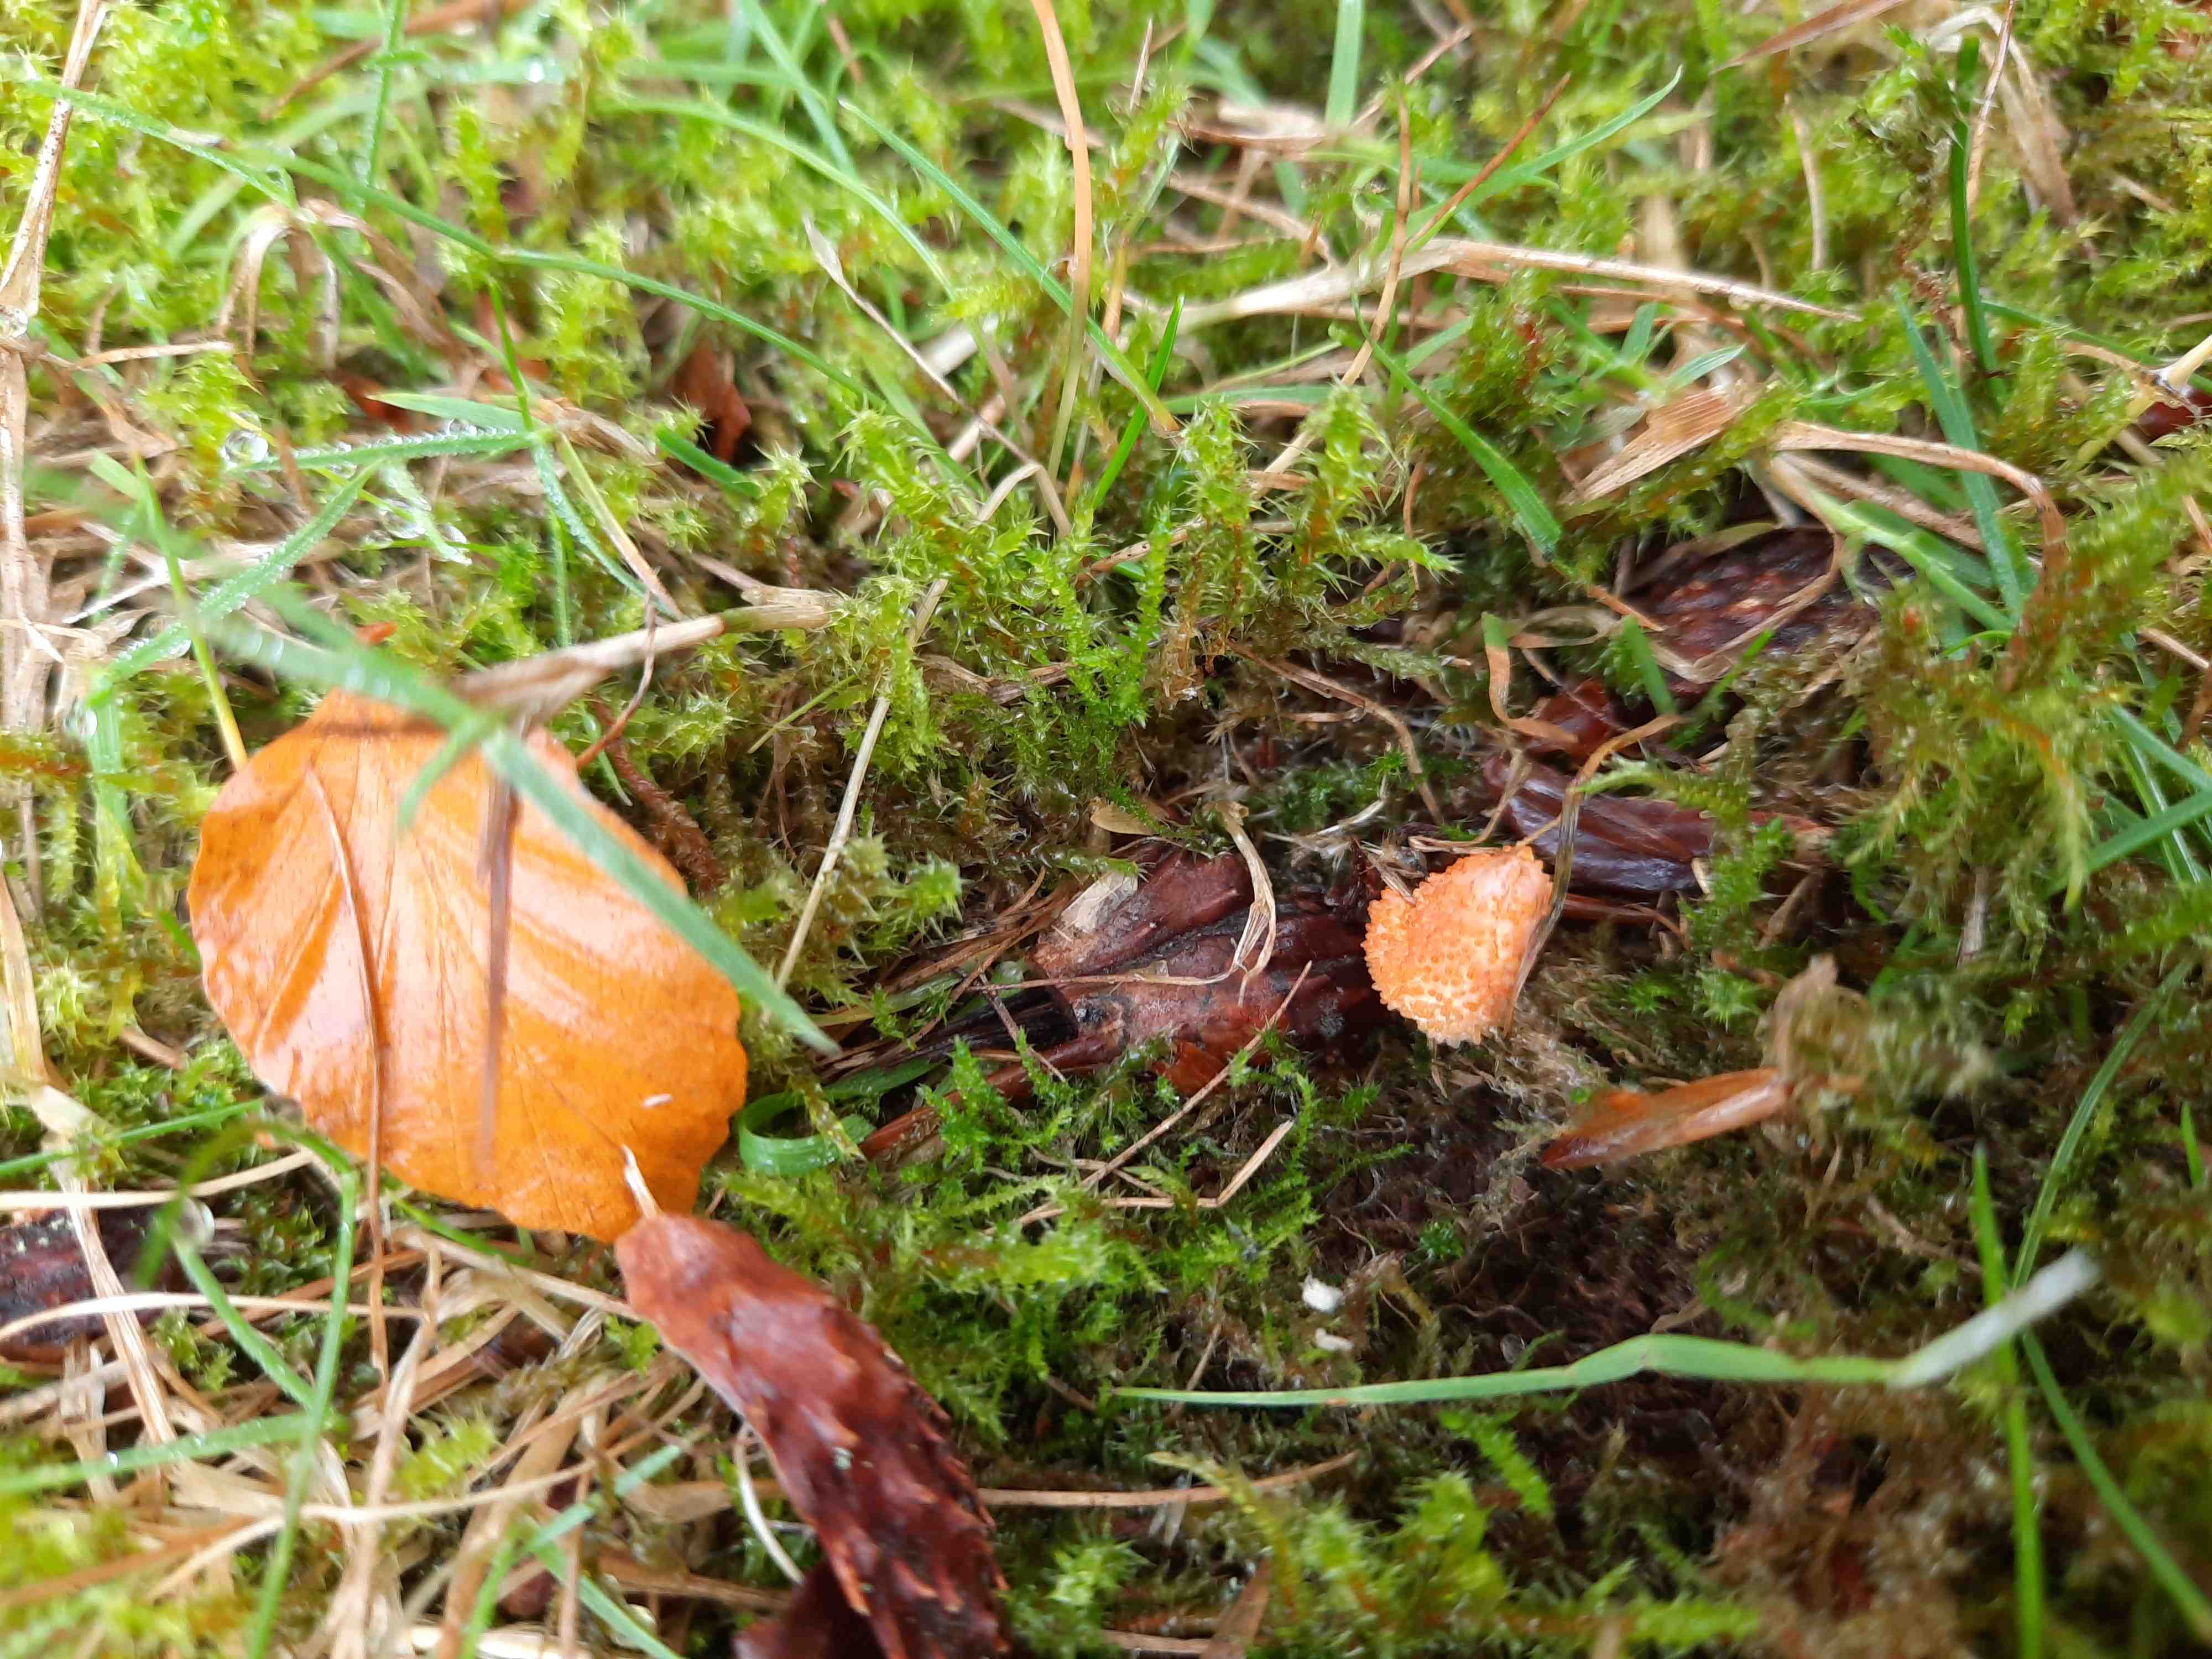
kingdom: Fungi
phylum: Ascomycota
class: Sordariomycetes
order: Hypocreales
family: Cordycipitaceae
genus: Cordyceps
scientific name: Cordyceps militaris
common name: puppe-snyltekølle
